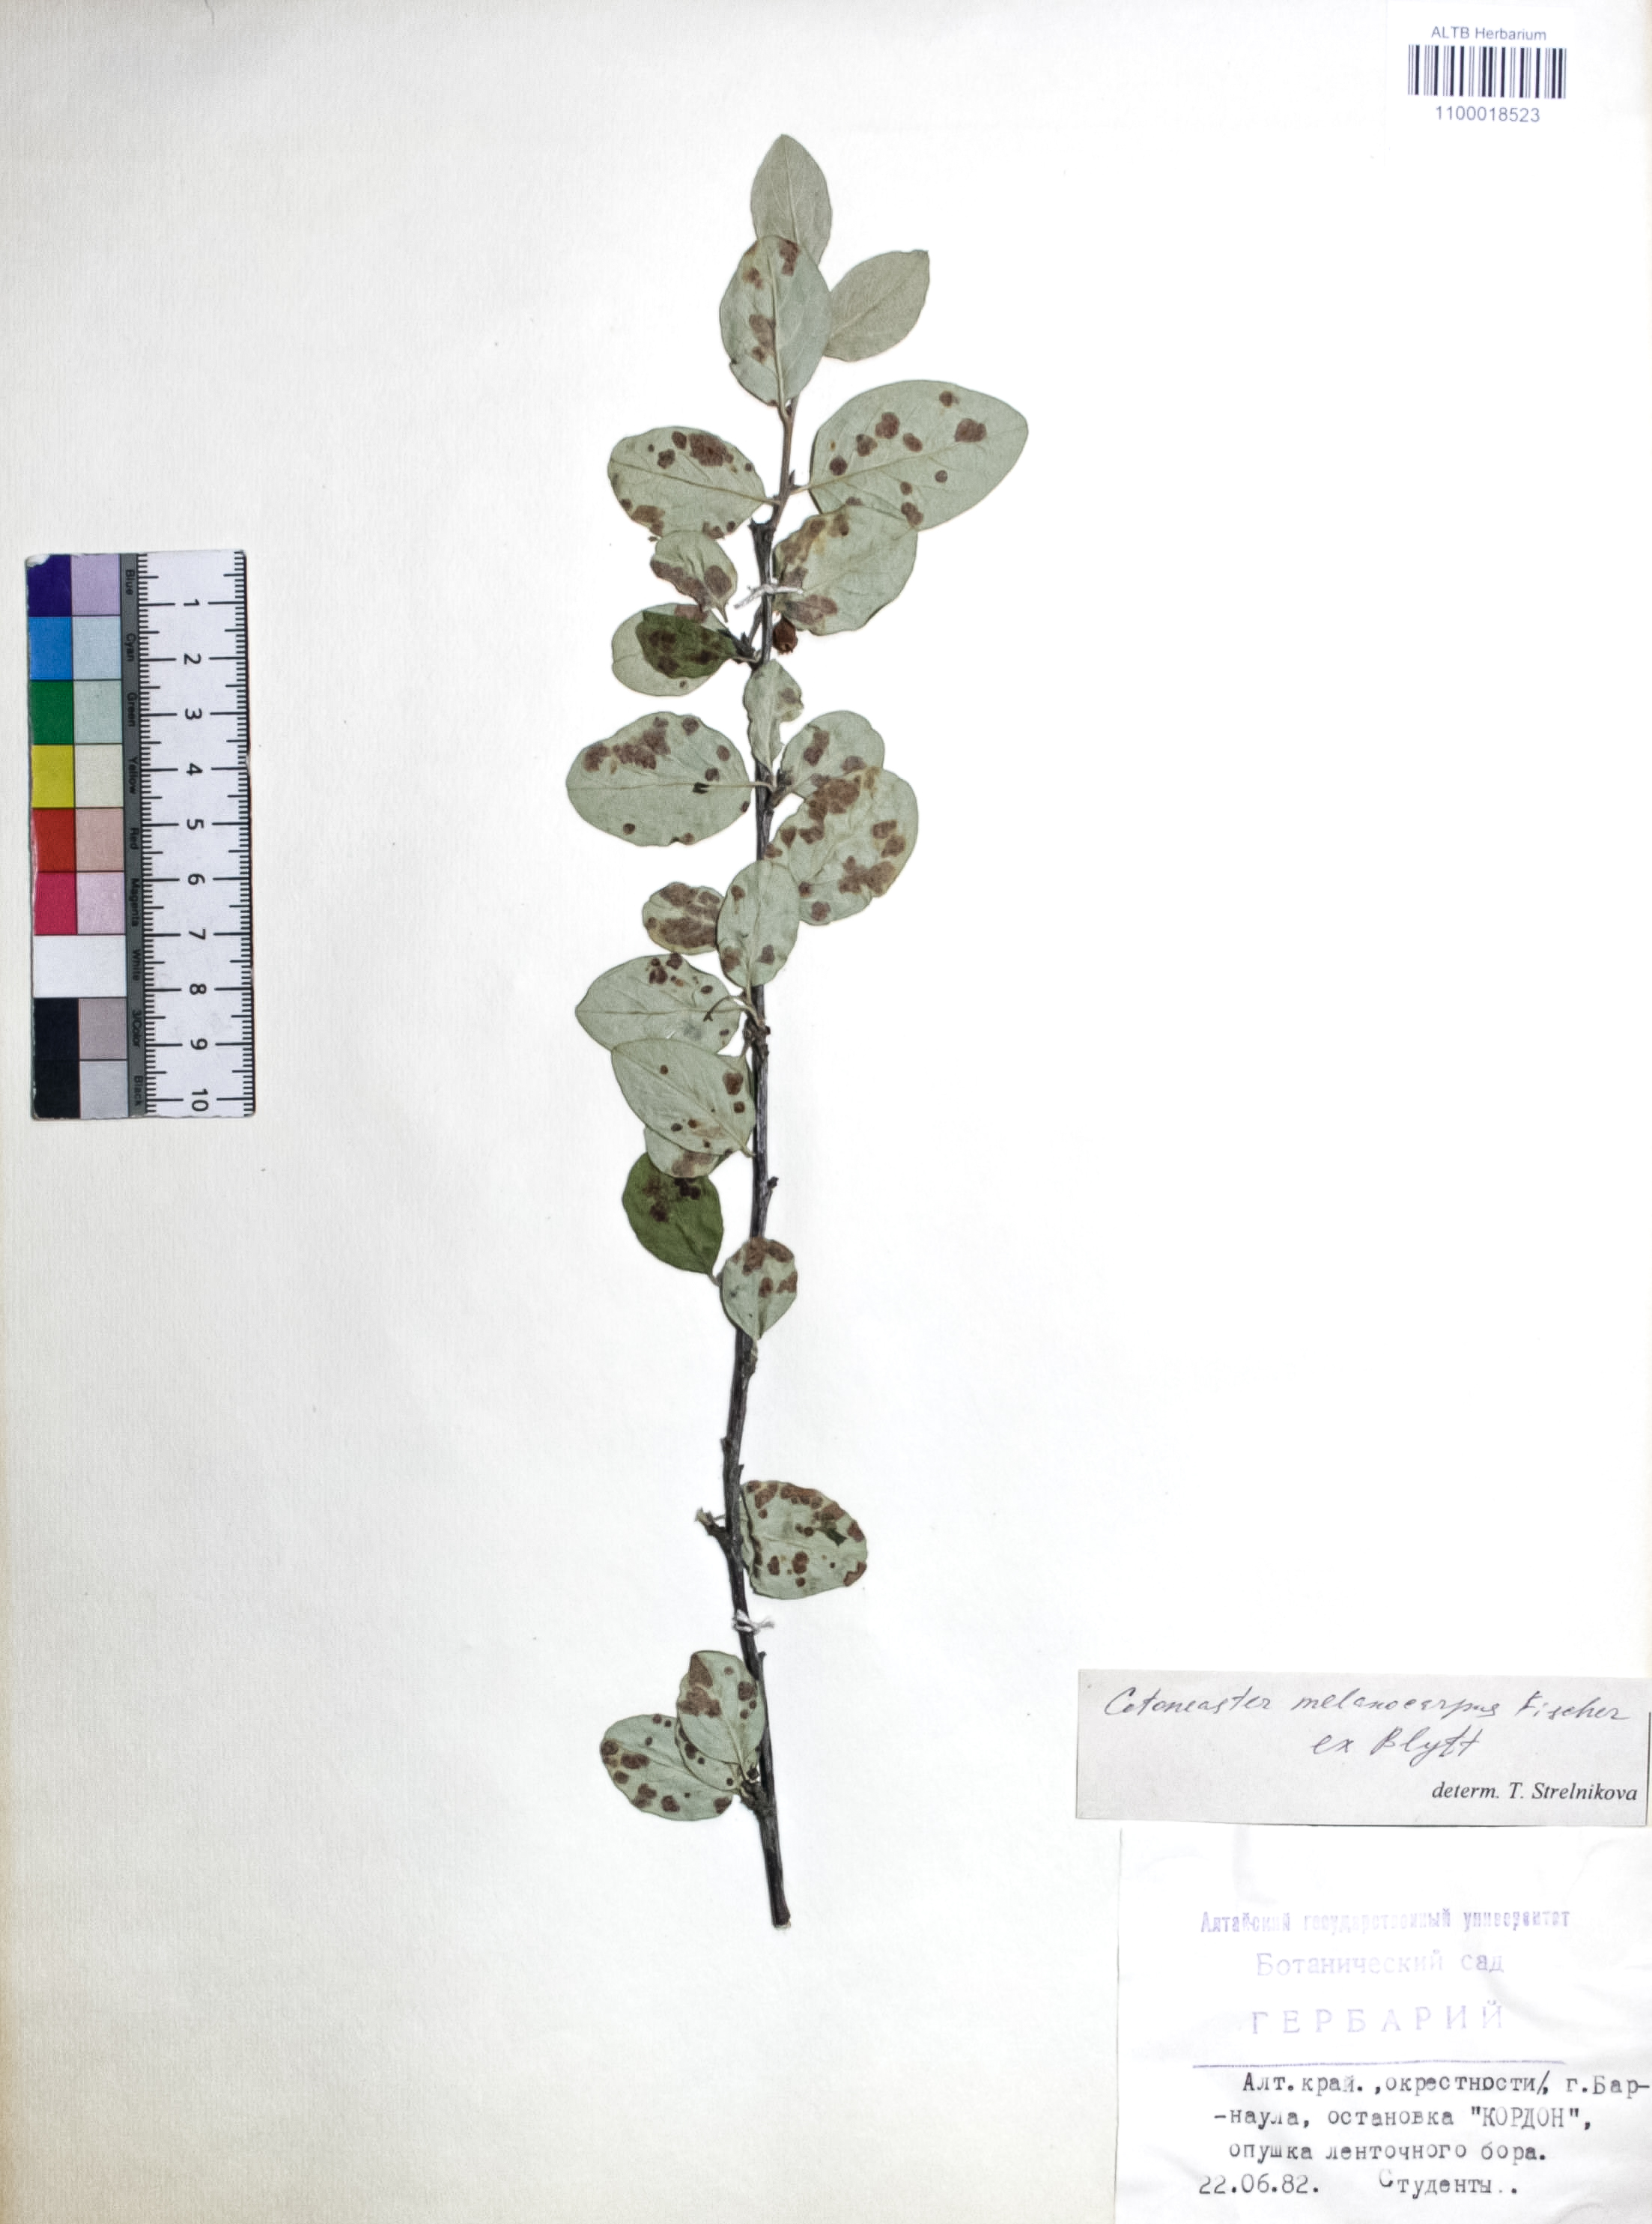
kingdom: Plantae
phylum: Tracheophyta
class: Magnoliopsida
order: Rosales
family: Rosaceae
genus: Cotoneaster
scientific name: Cotoneaster niger
